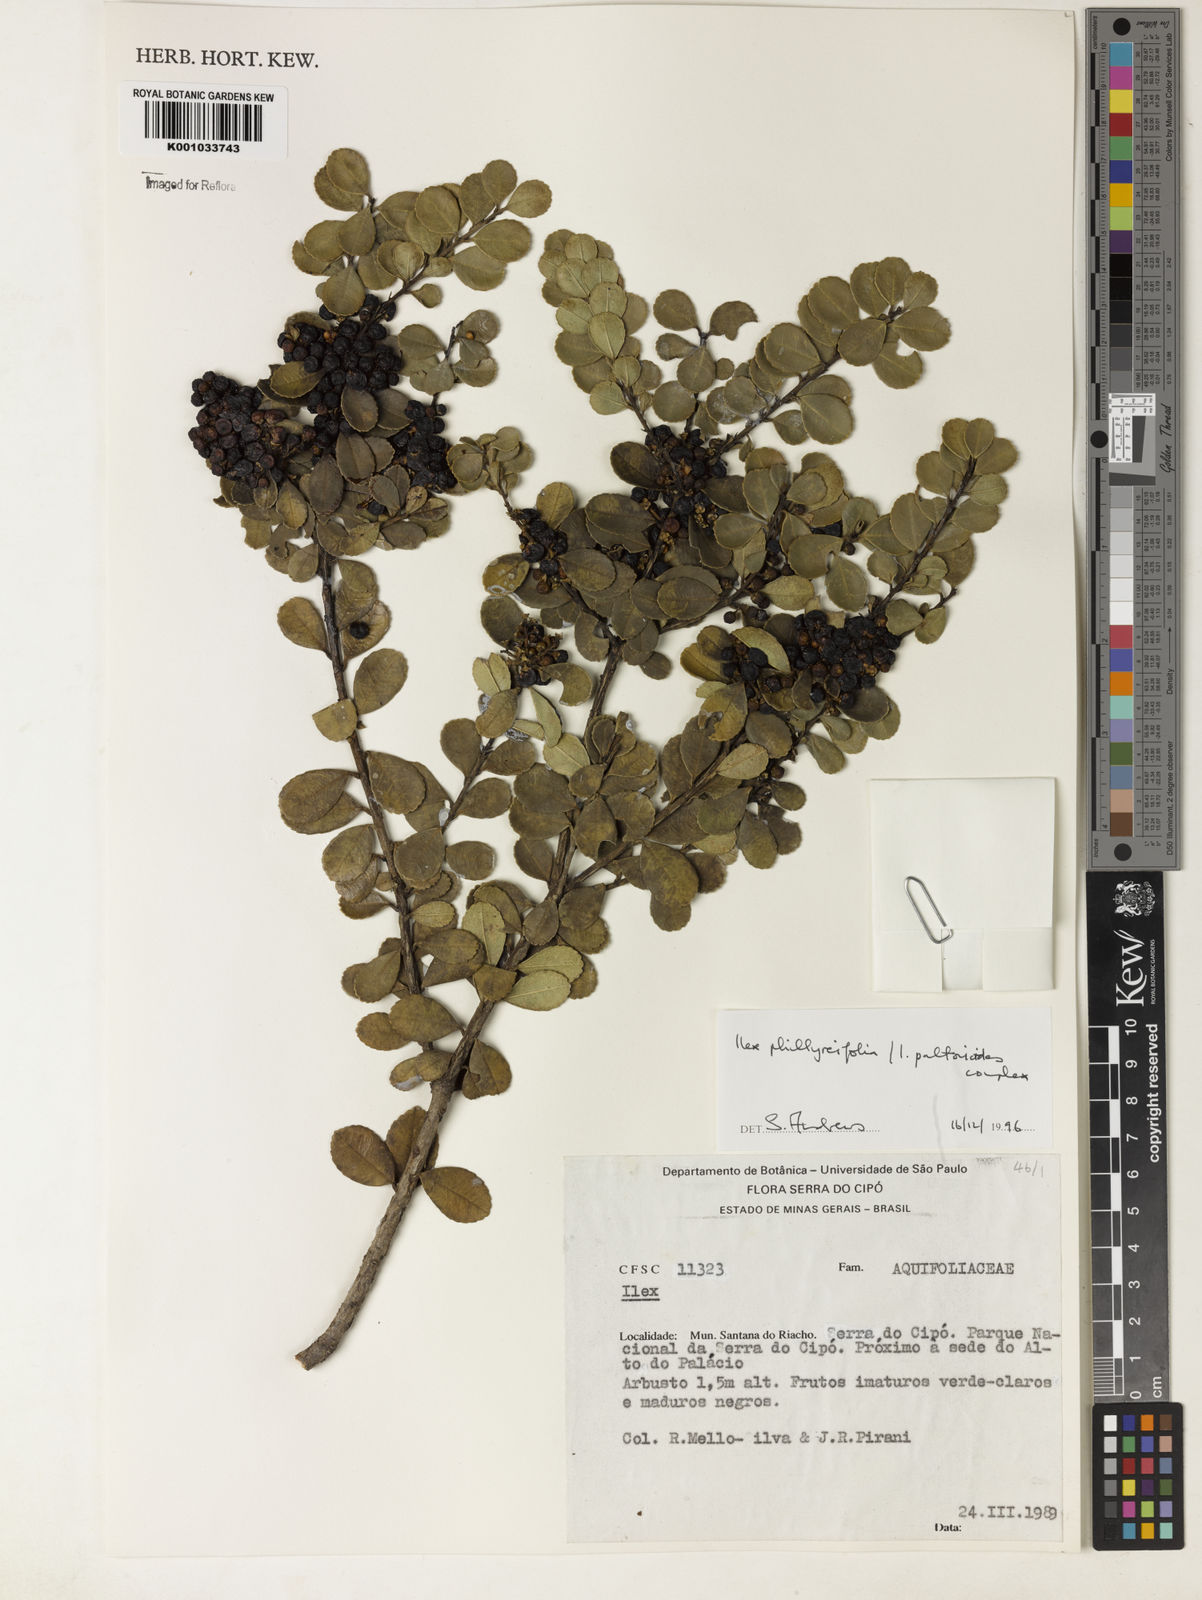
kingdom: Plantae
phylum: Tracheophyta
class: Magnoliopsida
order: Aquifoliales
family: Aquifoliaceae
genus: Ilex
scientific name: Ilex
